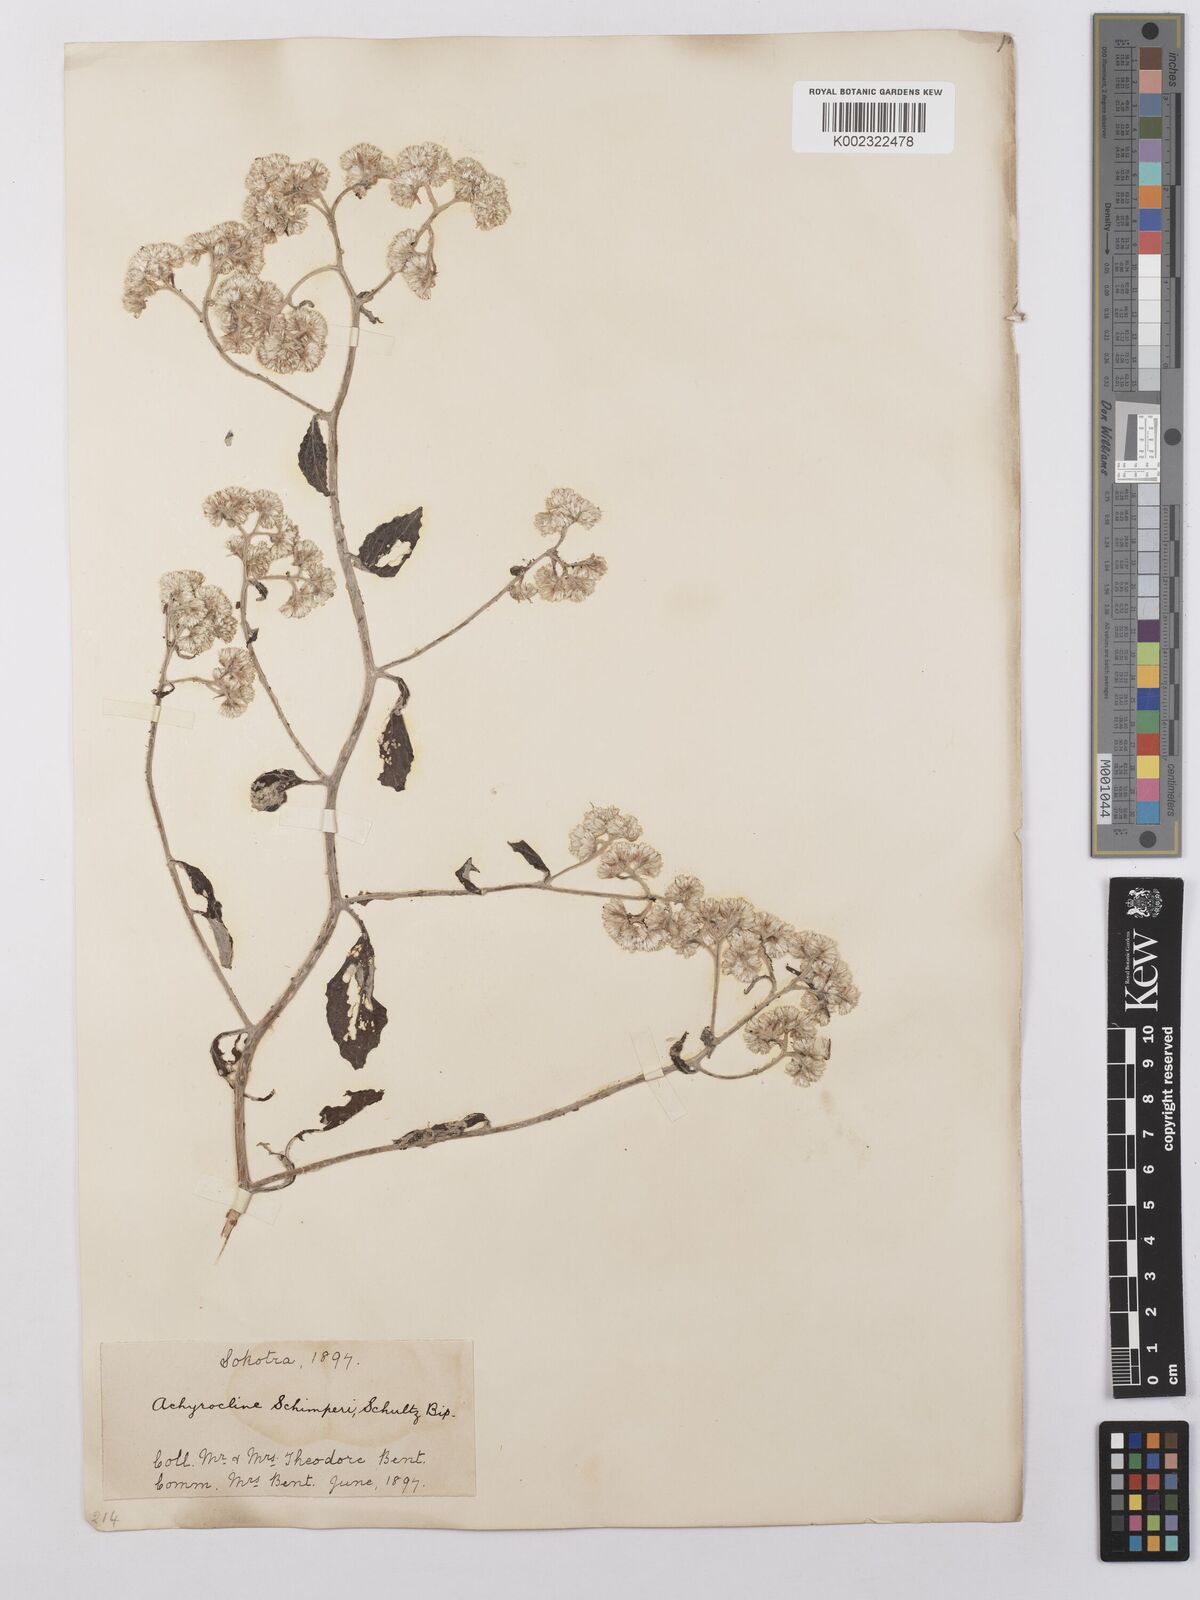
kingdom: Plantae
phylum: Tracheophyta
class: Magnoliopsida
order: Asterales
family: Asteraceae
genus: Helichrysum
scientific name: Helichrysum schimperi
